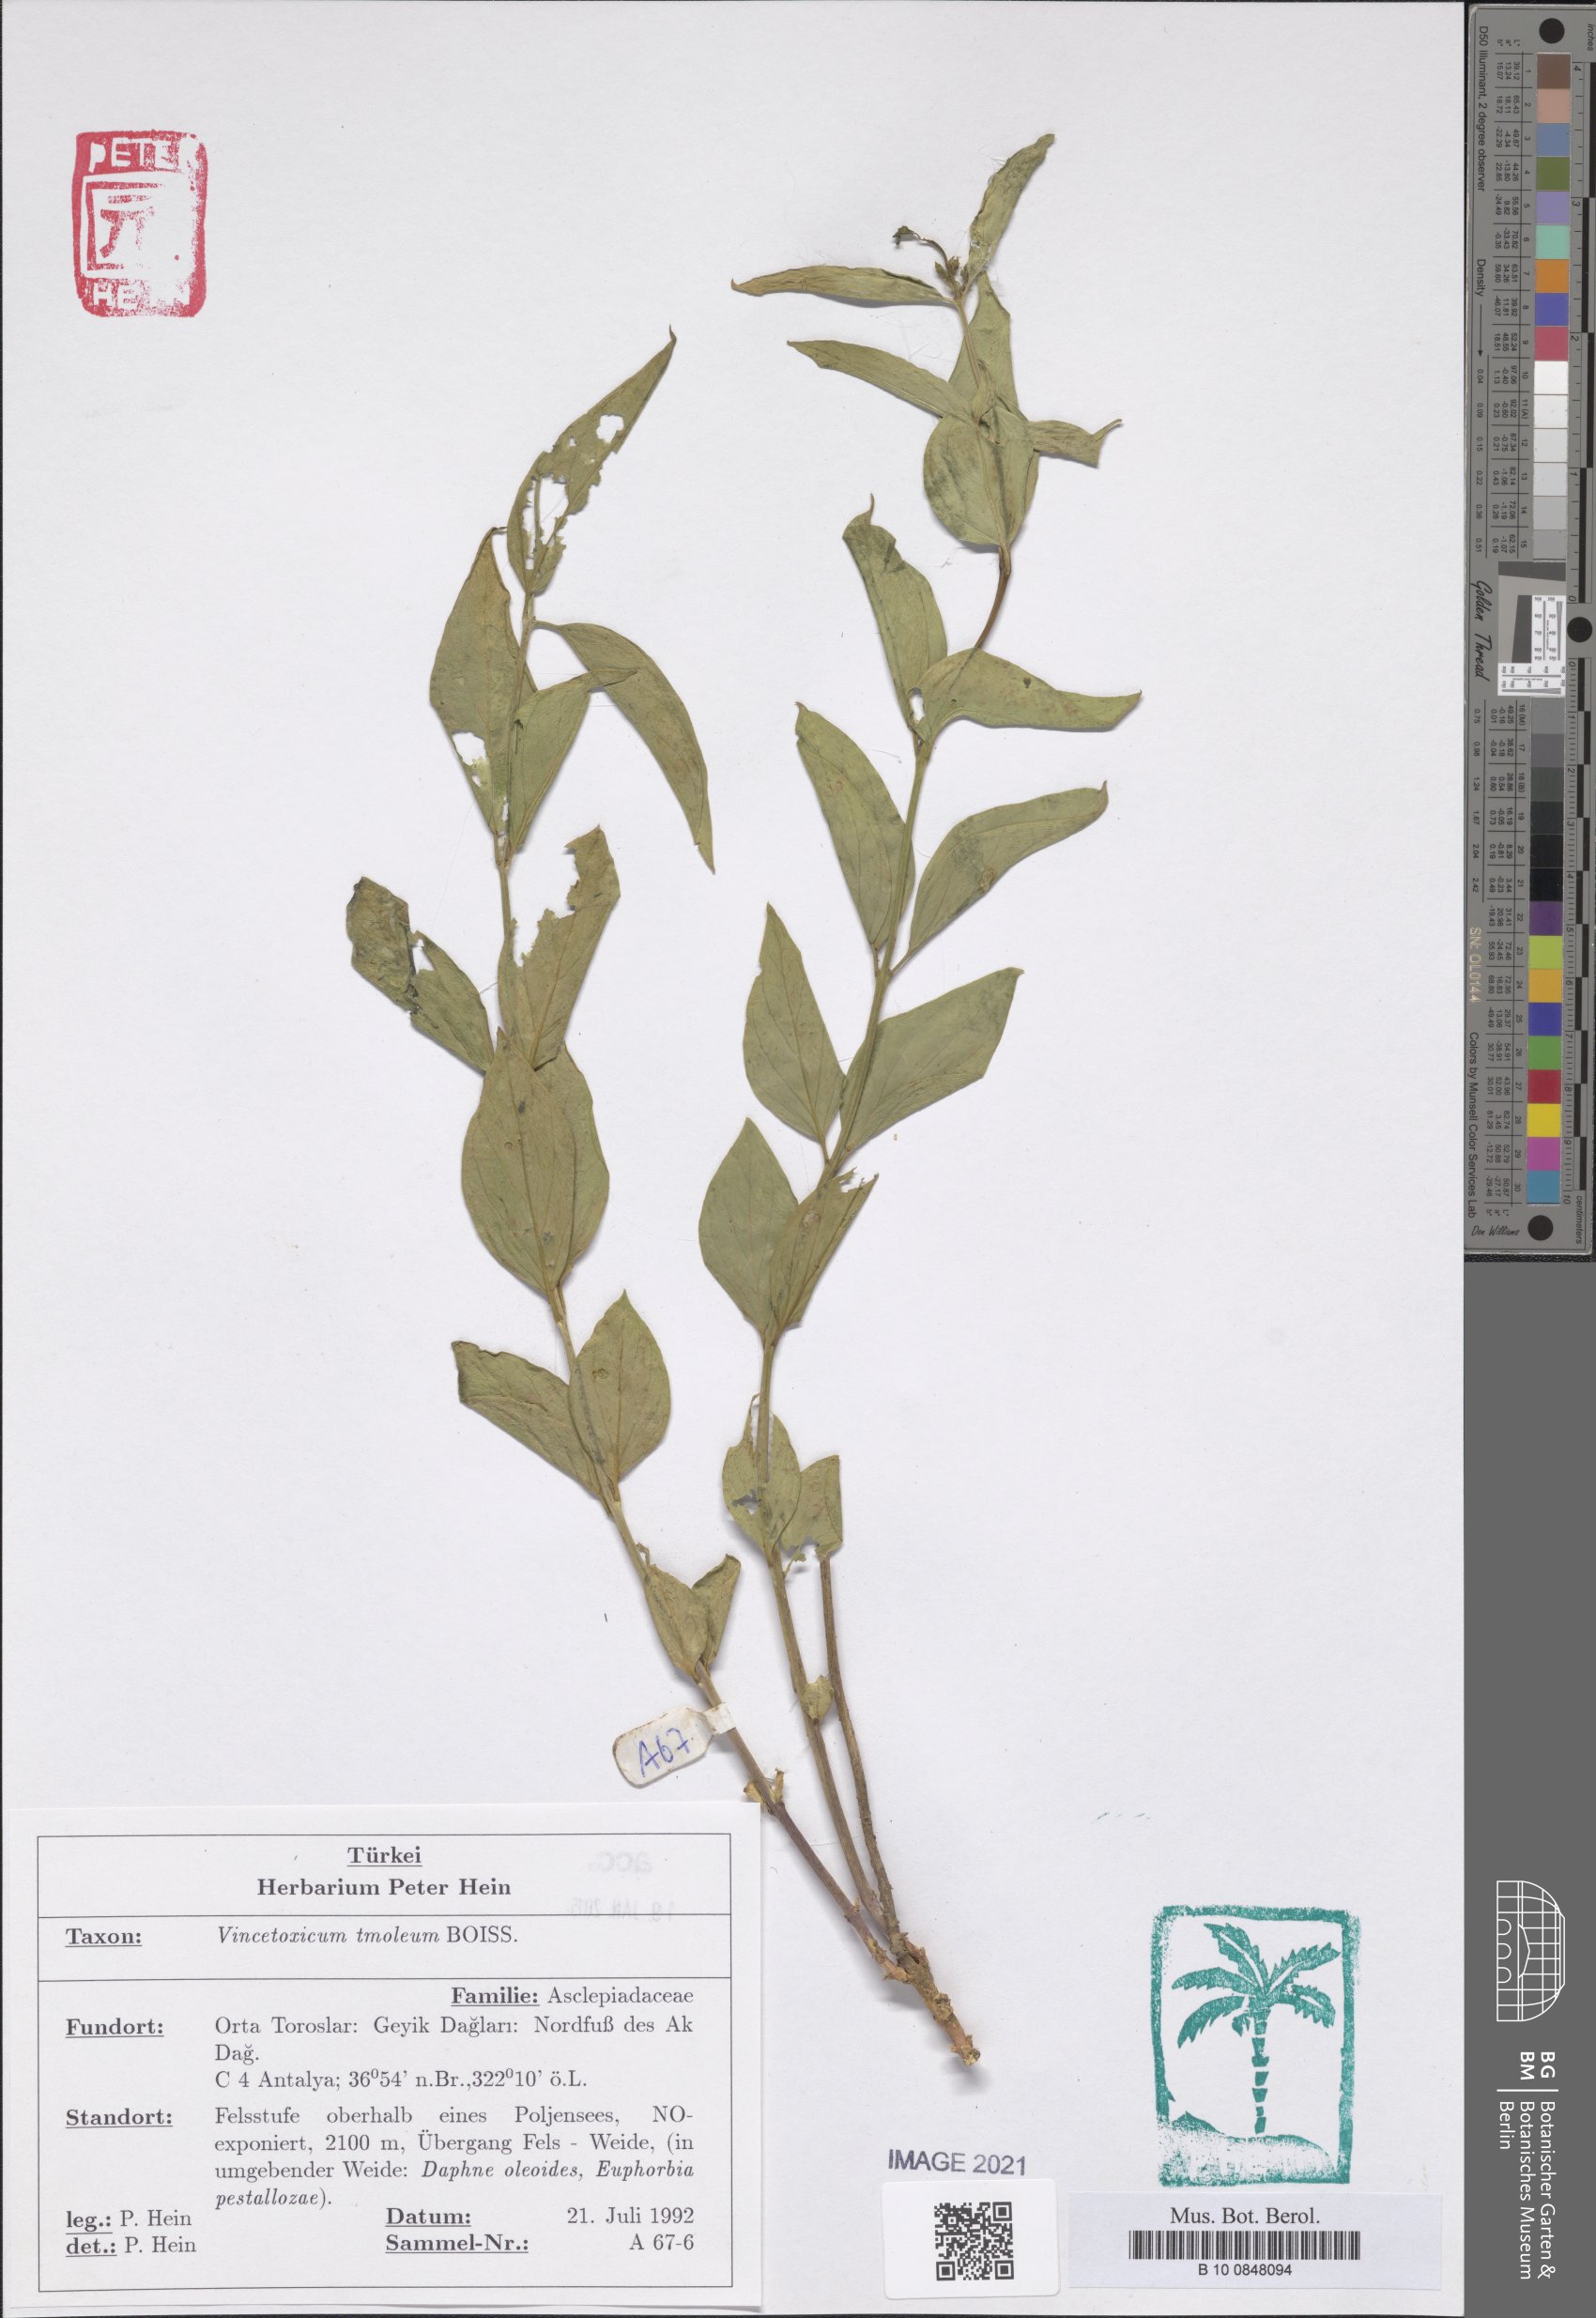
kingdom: Plantae
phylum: Tracheophyta
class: Magnoliopsida
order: Gentianales
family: Apocynaceae
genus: Vincetoxicum
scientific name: Vincetoxicum tmoleum
